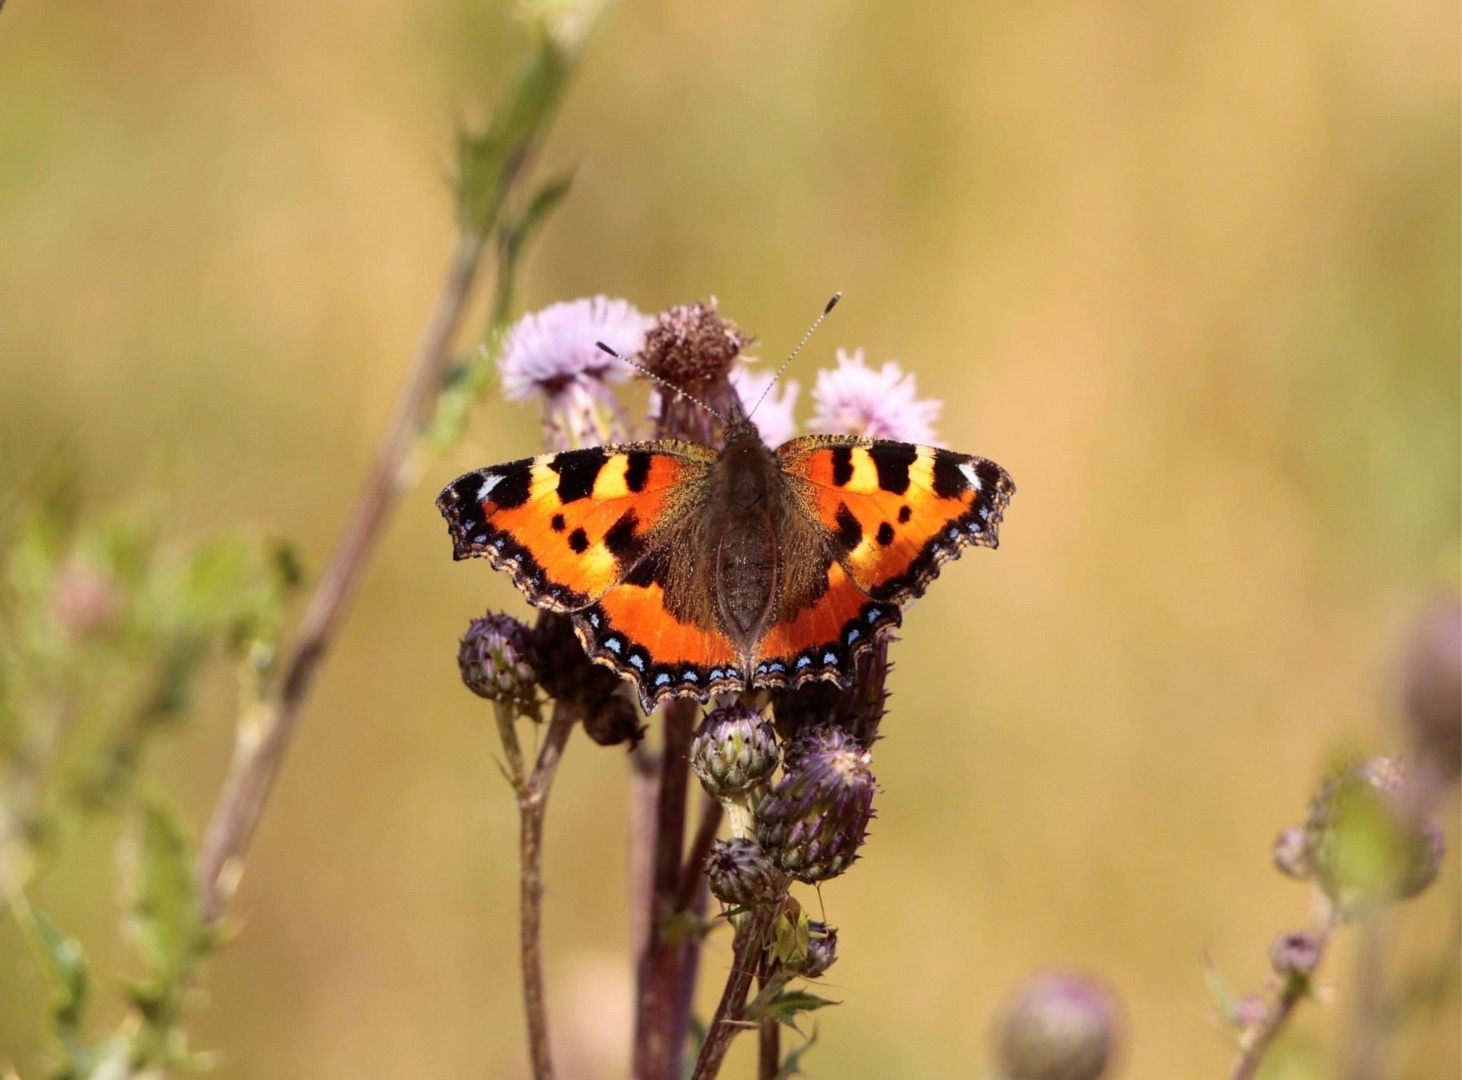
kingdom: Animalia
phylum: Arthropoda
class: Insecta
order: Lepidoptera
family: Nymphalidae
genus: Aglais
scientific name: Aglais urticae
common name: Nældens takvinge
